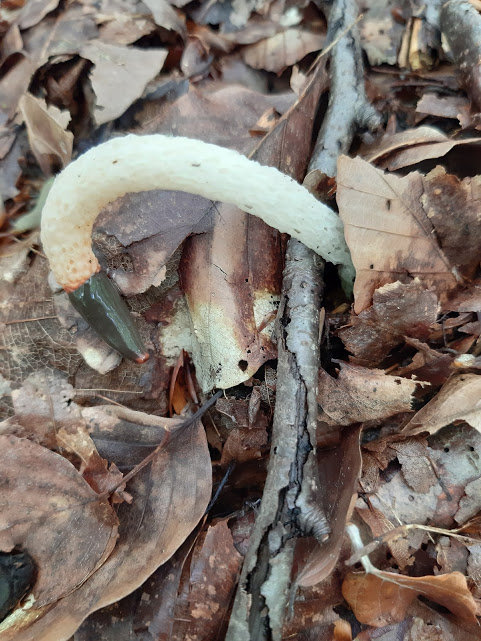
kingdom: Fungi
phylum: Basidiomycota
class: Agaricomycetes
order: Phallales
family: Phallaceae
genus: Mutinus
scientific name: Mutinus caninus
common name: hunde-stinksvamp
